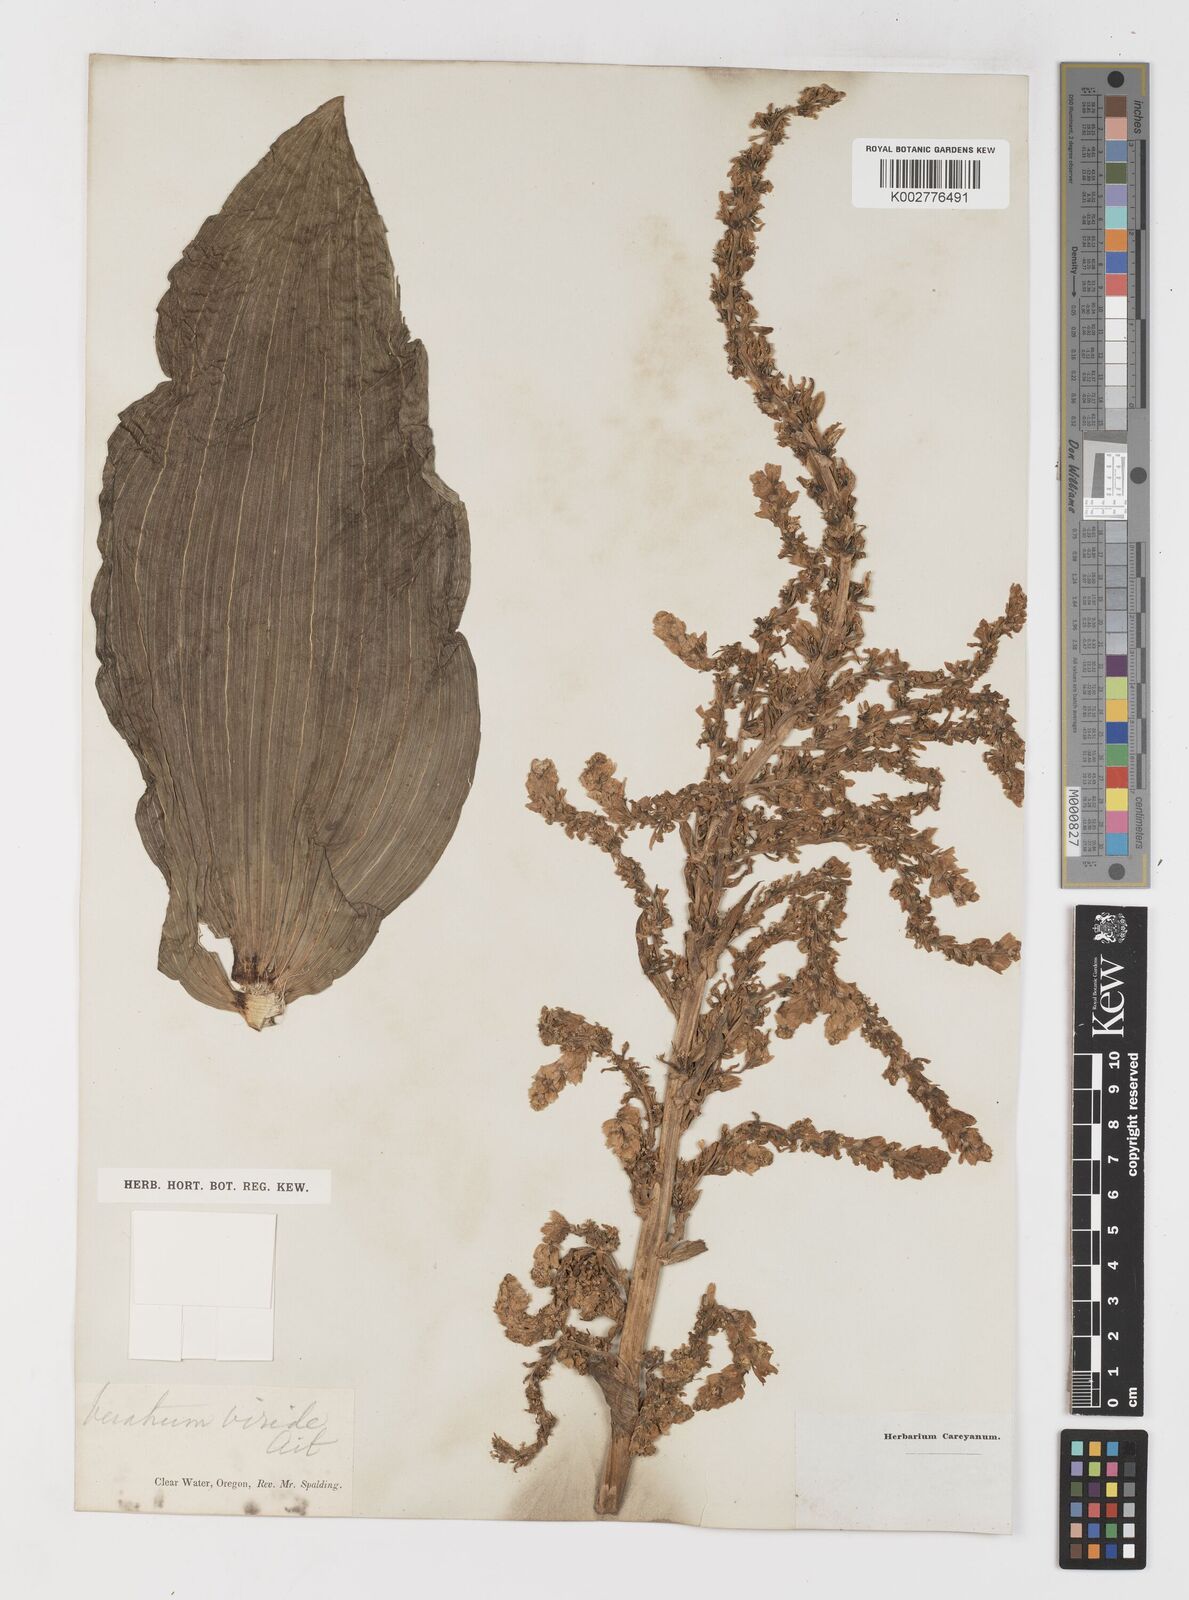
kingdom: Plantae
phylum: Tracheophyta
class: Liliopsida
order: Liliales
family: Melanthiaceae
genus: Veratrum
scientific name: Veratrum viride
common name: American false hellebore
